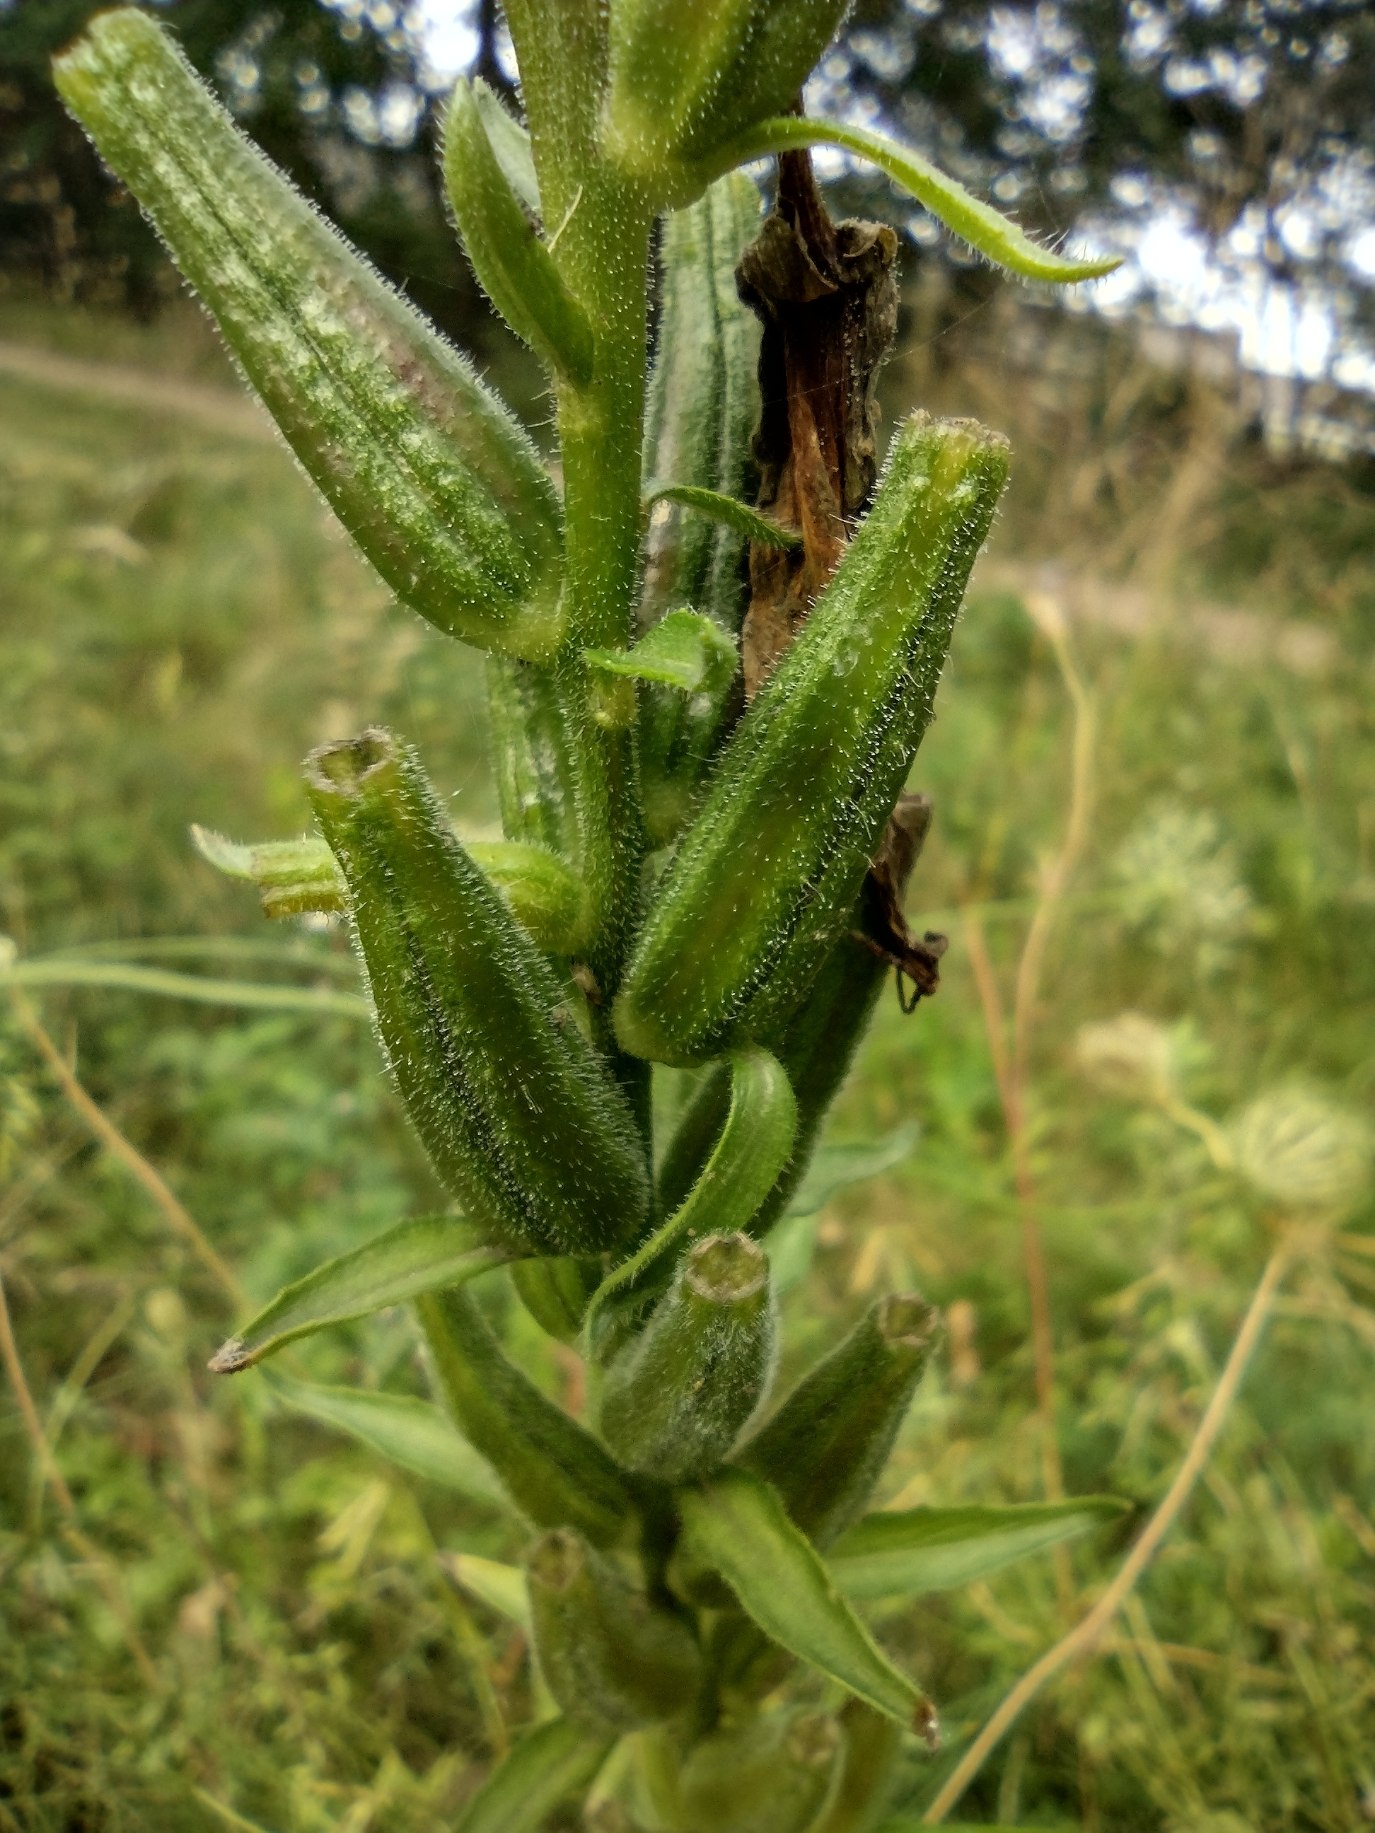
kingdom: Plantae
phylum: Tracheophyta
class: Magnoliopsida
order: Myrtales
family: Onagraceae
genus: Oenothera
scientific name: Oenothera glazioviana
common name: Kæmpe-natlys
